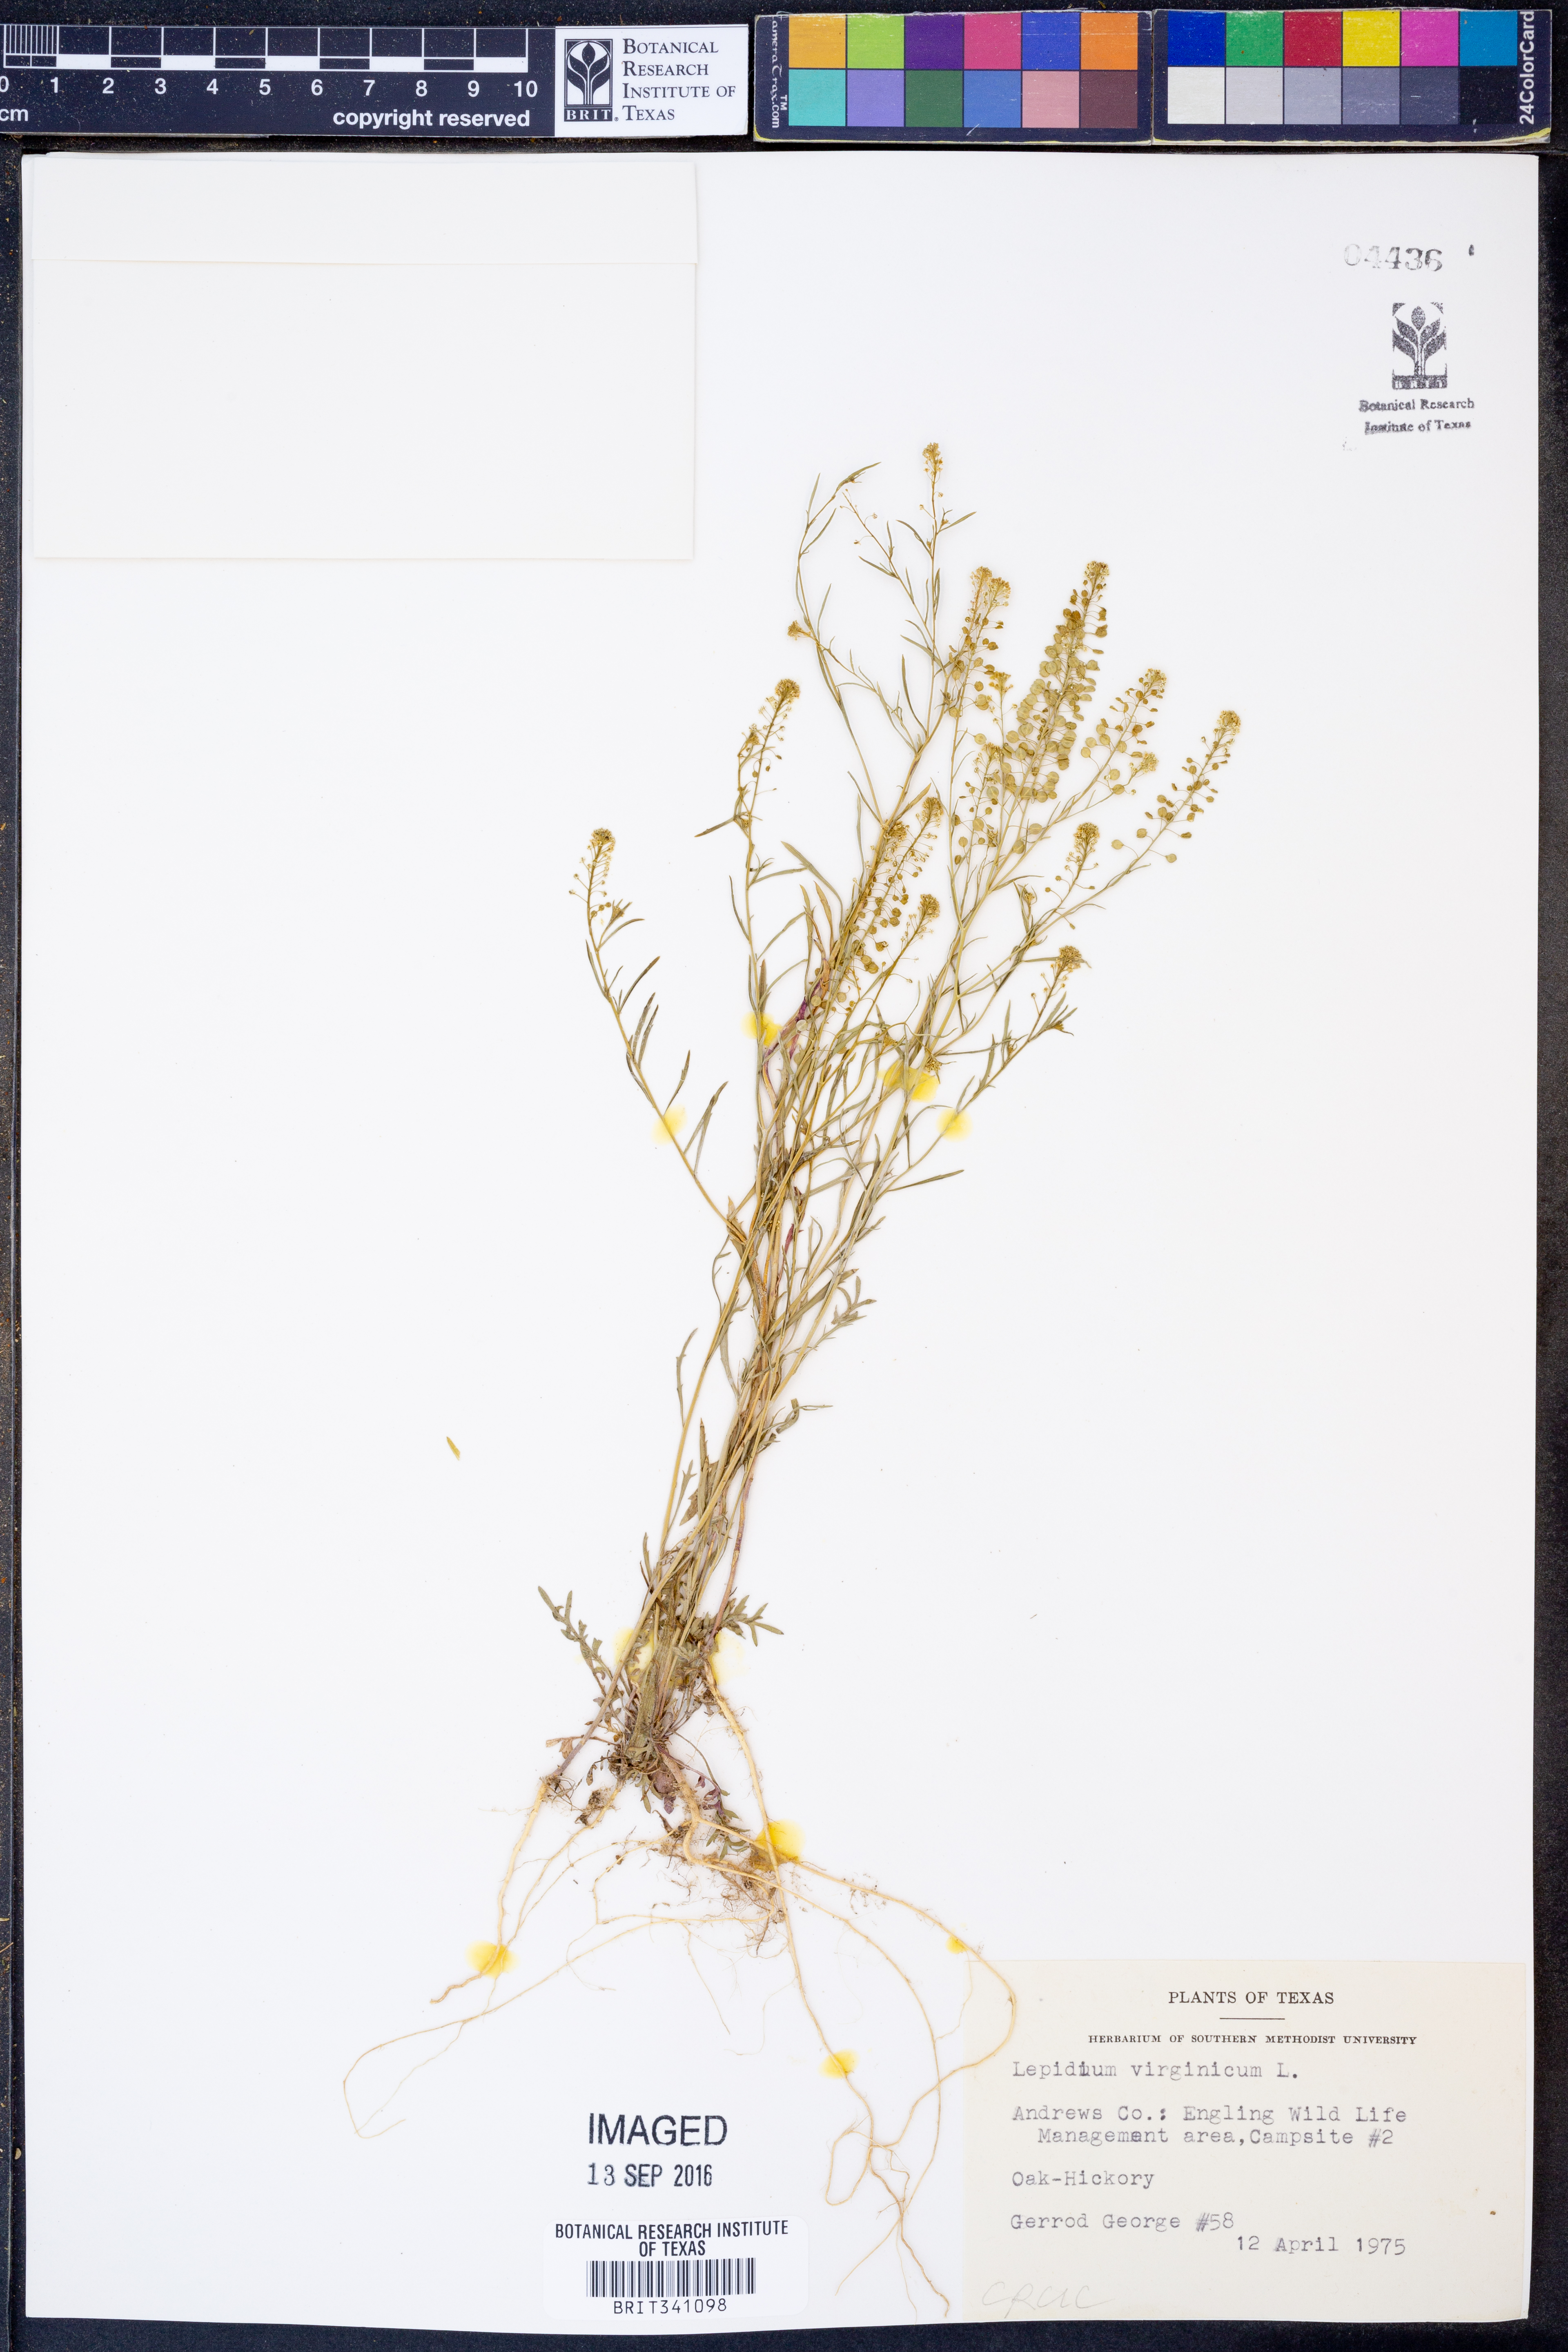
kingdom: Plantae
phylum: Tracheophyta
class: Magnoliopsida
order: Brassicales
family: Brassicaceae
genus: Lepidium
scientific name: Lepidium virginicum
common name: Least pepperwort
